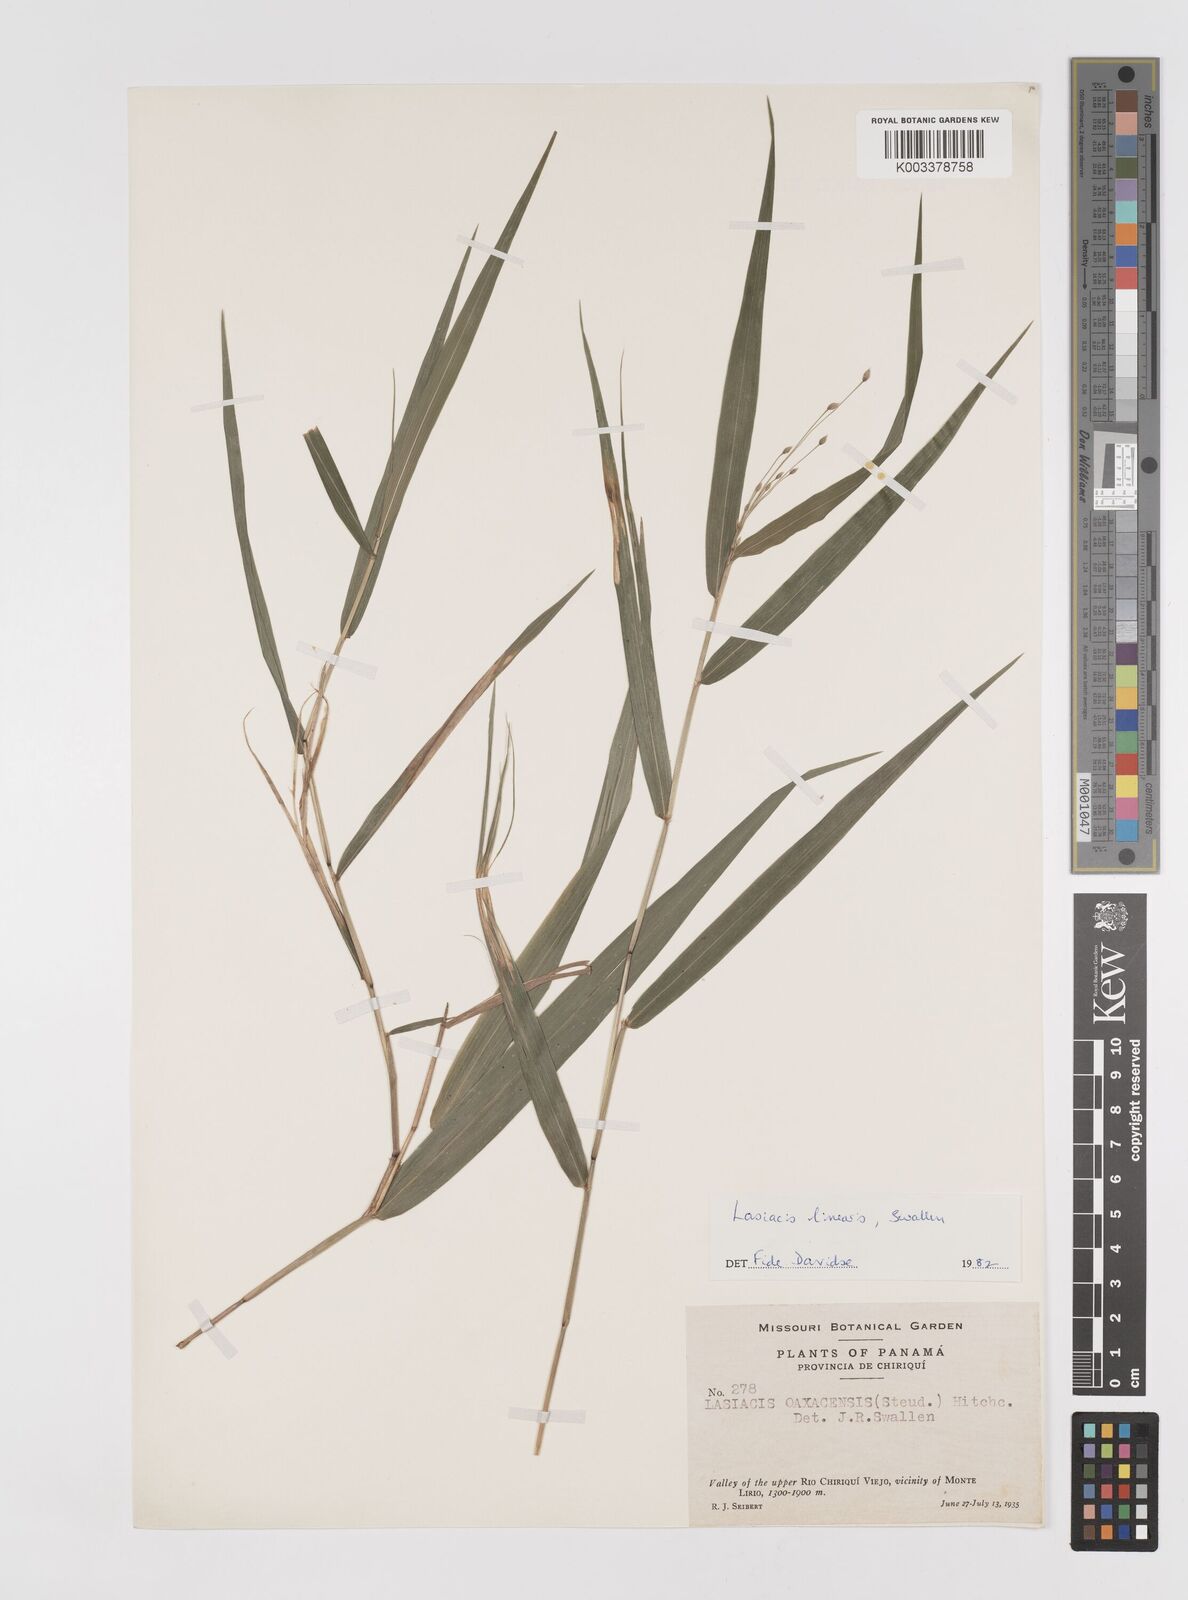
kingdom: Plantae
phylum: Tracheophyta
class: Liliopsida
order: Poales
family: Poaceae
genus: Lasiacis
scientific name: Lasiacis linearis
